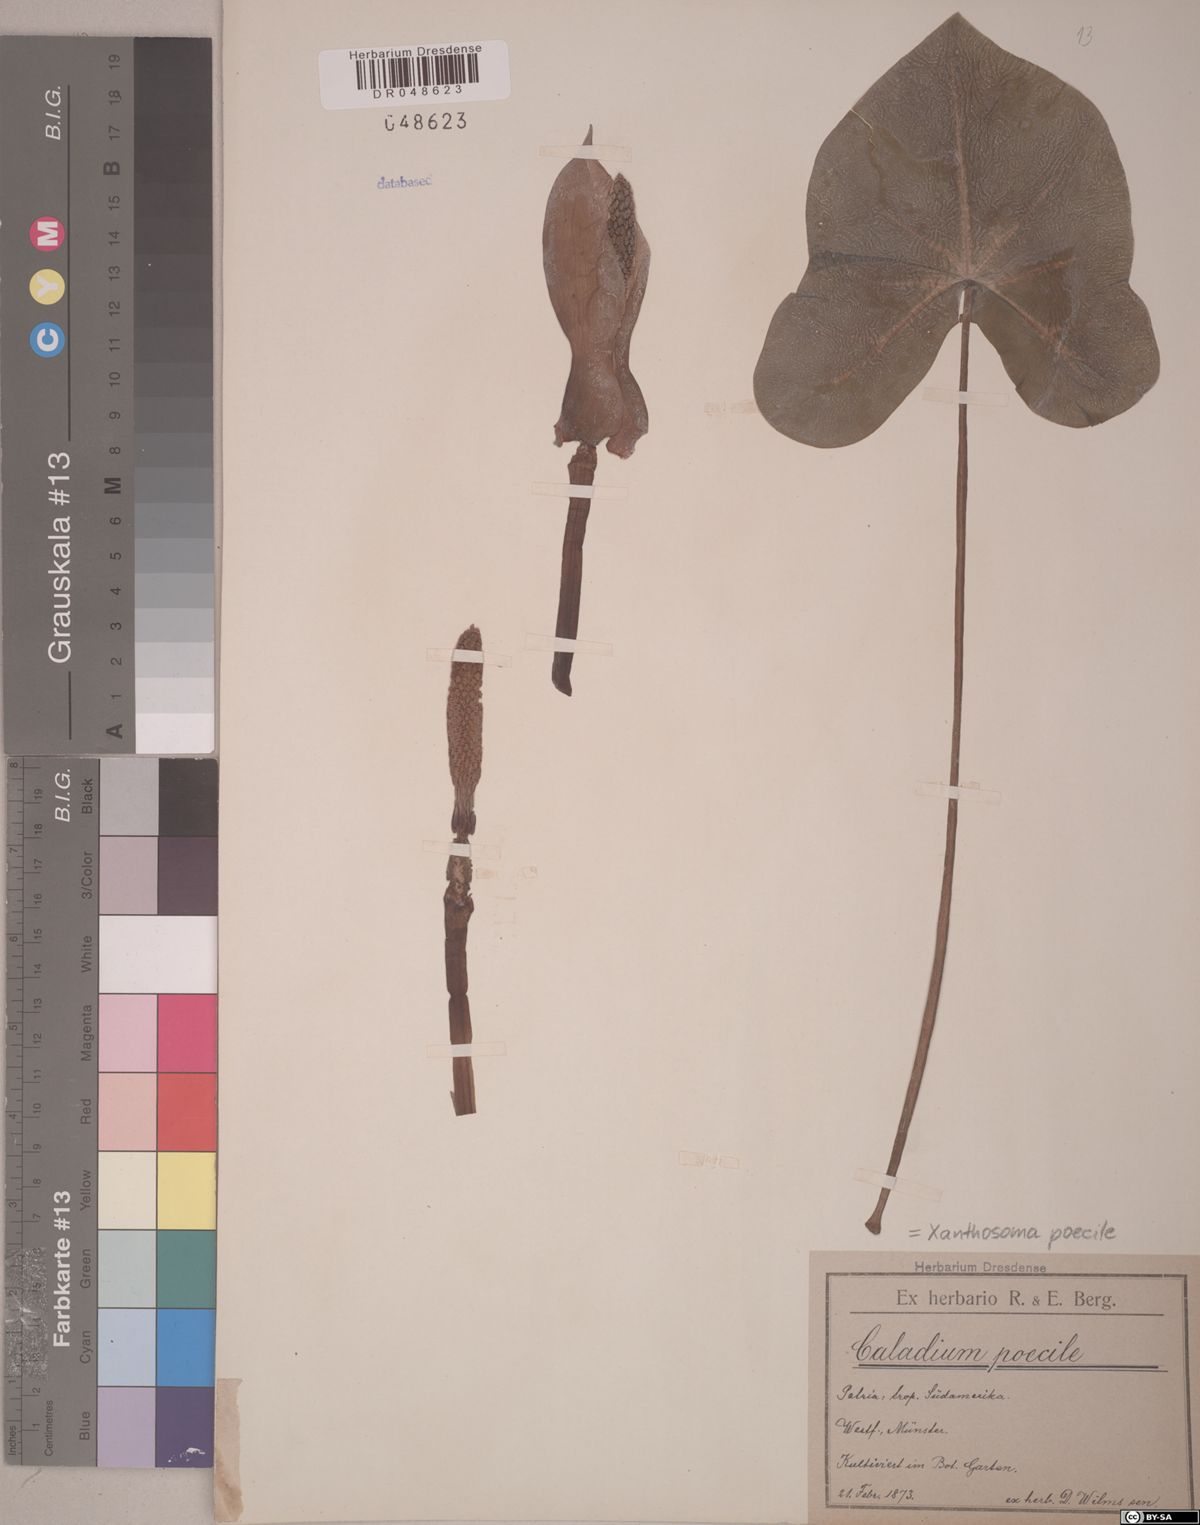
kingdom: Plantae
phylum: Tracheophyta
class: Liliopsida
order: Alismatales
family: Araceae
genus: Xanthosoma
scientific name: Xanthosoma poecile
